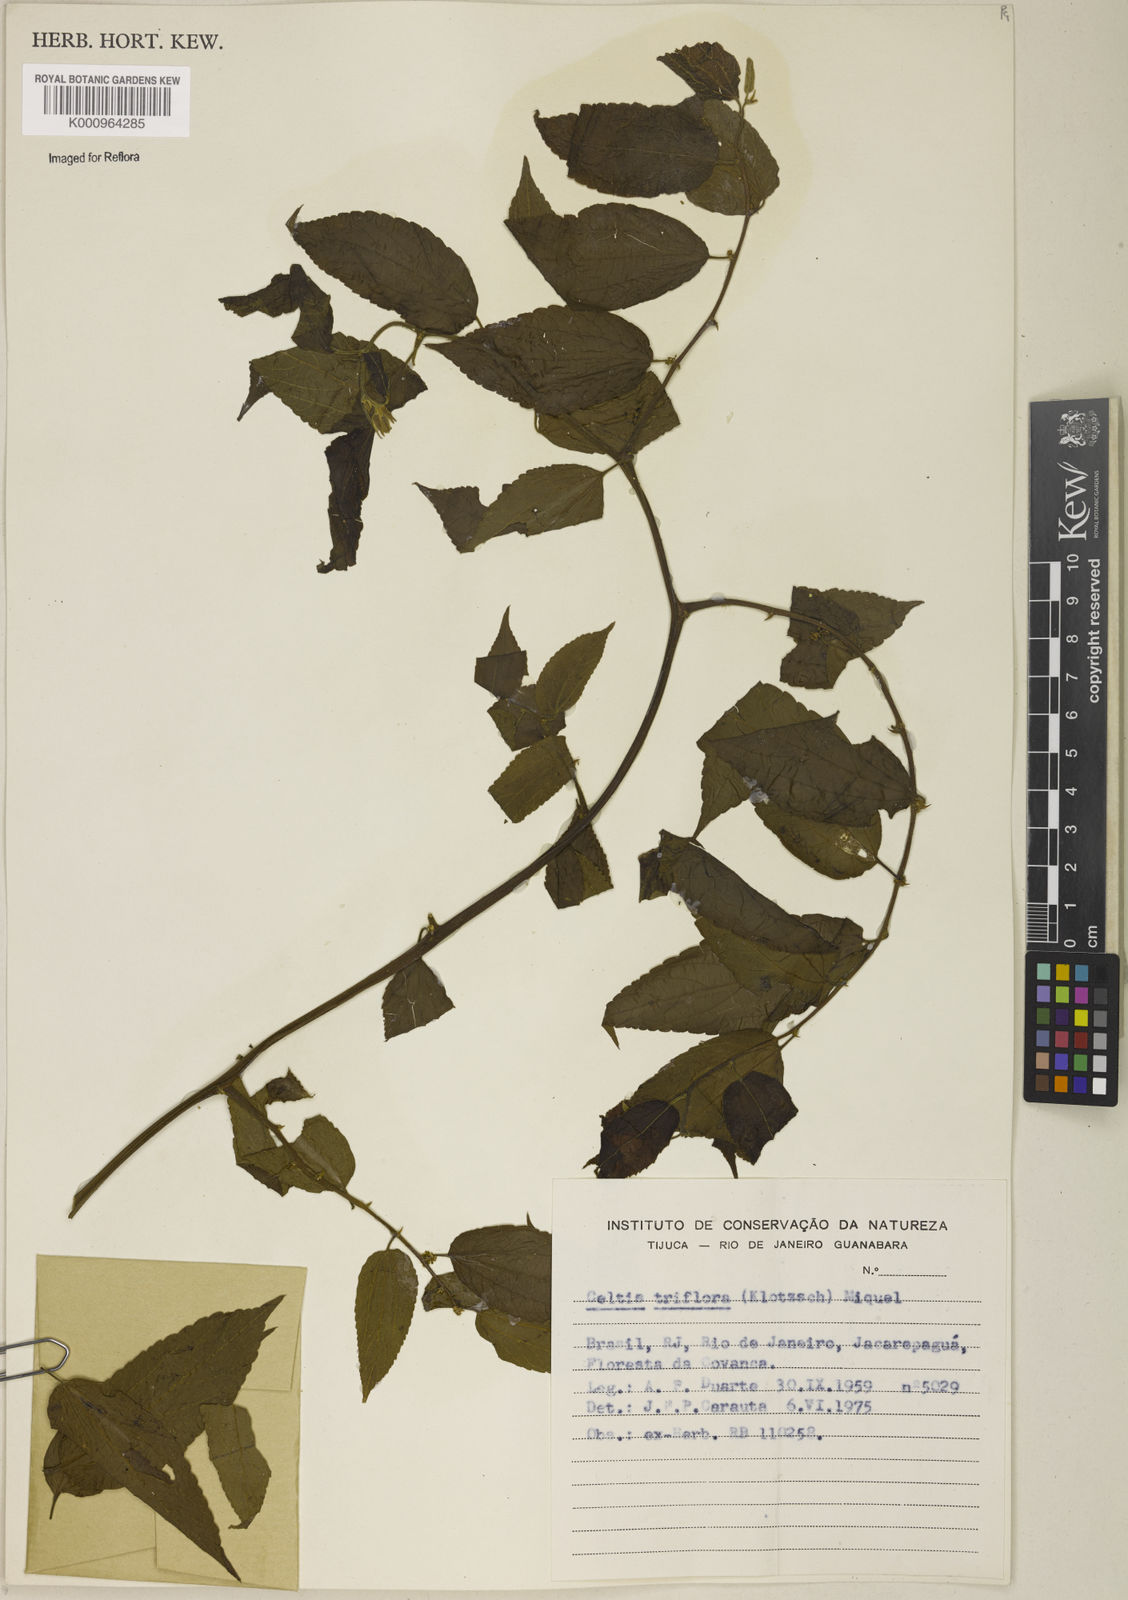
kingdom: Plantae
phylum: Tracheophyta
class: Magnoliopsida
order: Rosales
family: Cannabaceae
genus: Celtis
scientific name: Celtis iguanaea
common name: Iguana hackberry
